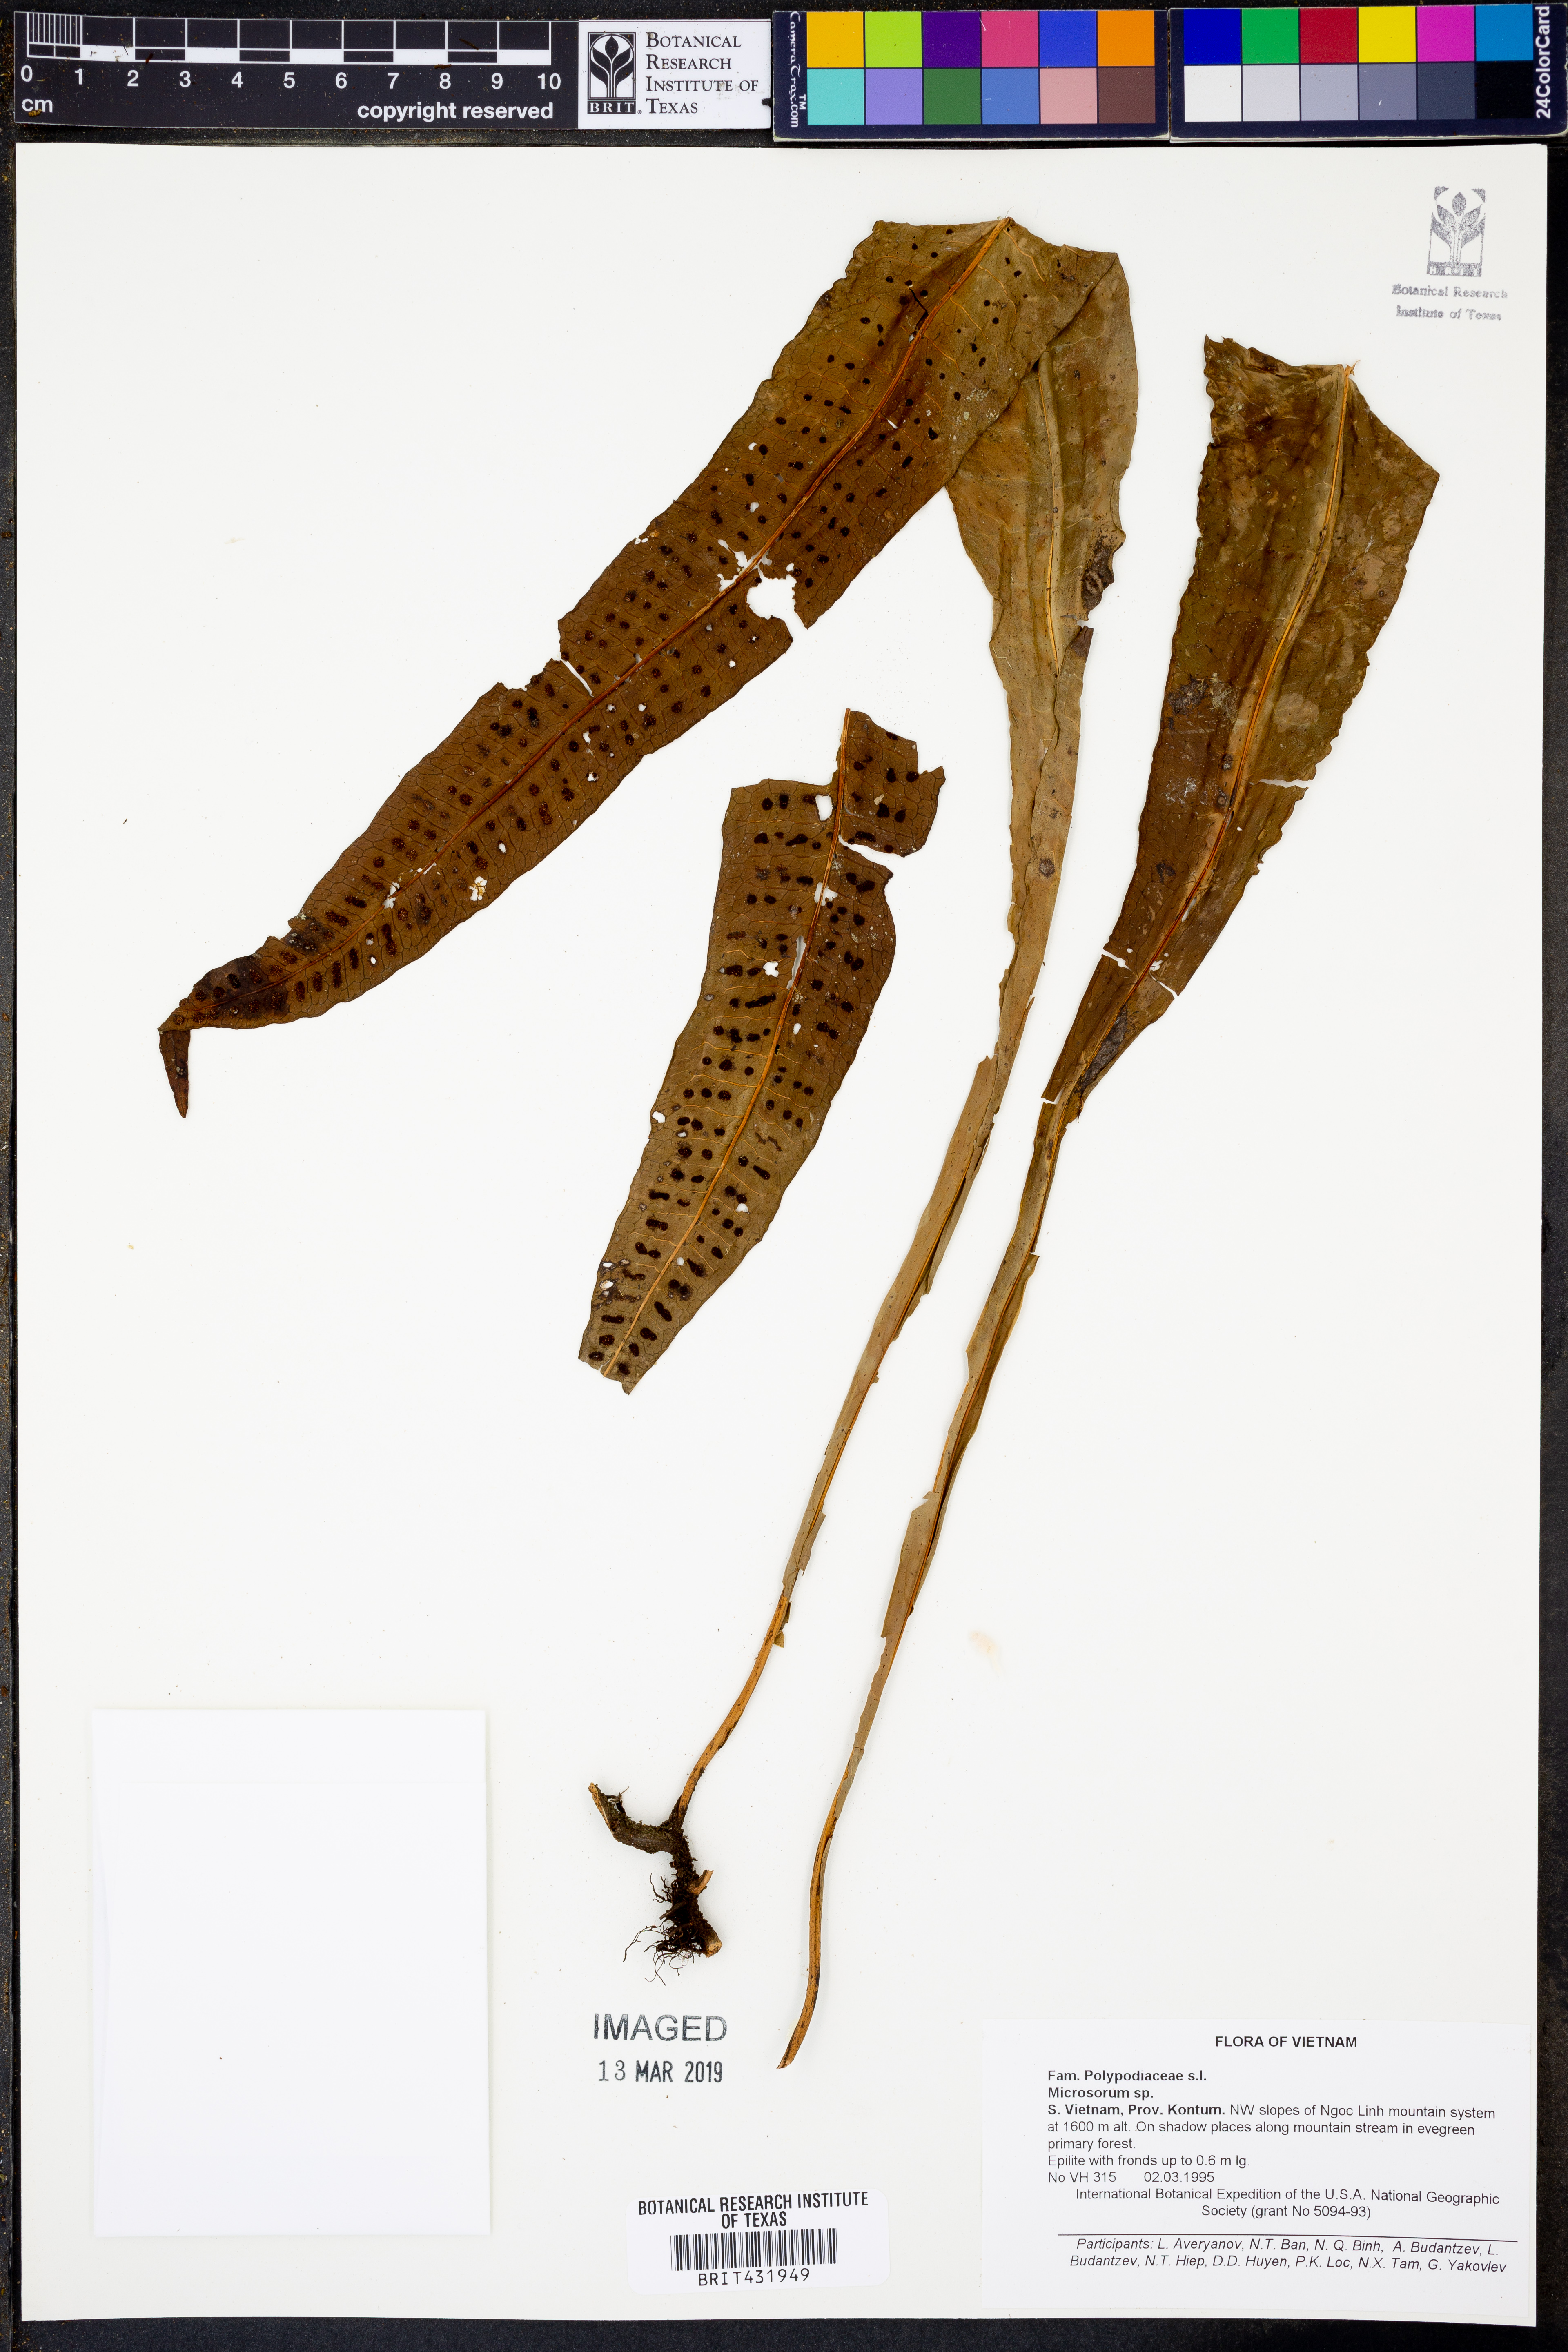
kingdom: Plantae
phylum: Tracheophyta
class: Polypodiopsida
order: Polypodiales
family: Polypodiaceae
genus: Microsorum
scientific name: Microsorum
